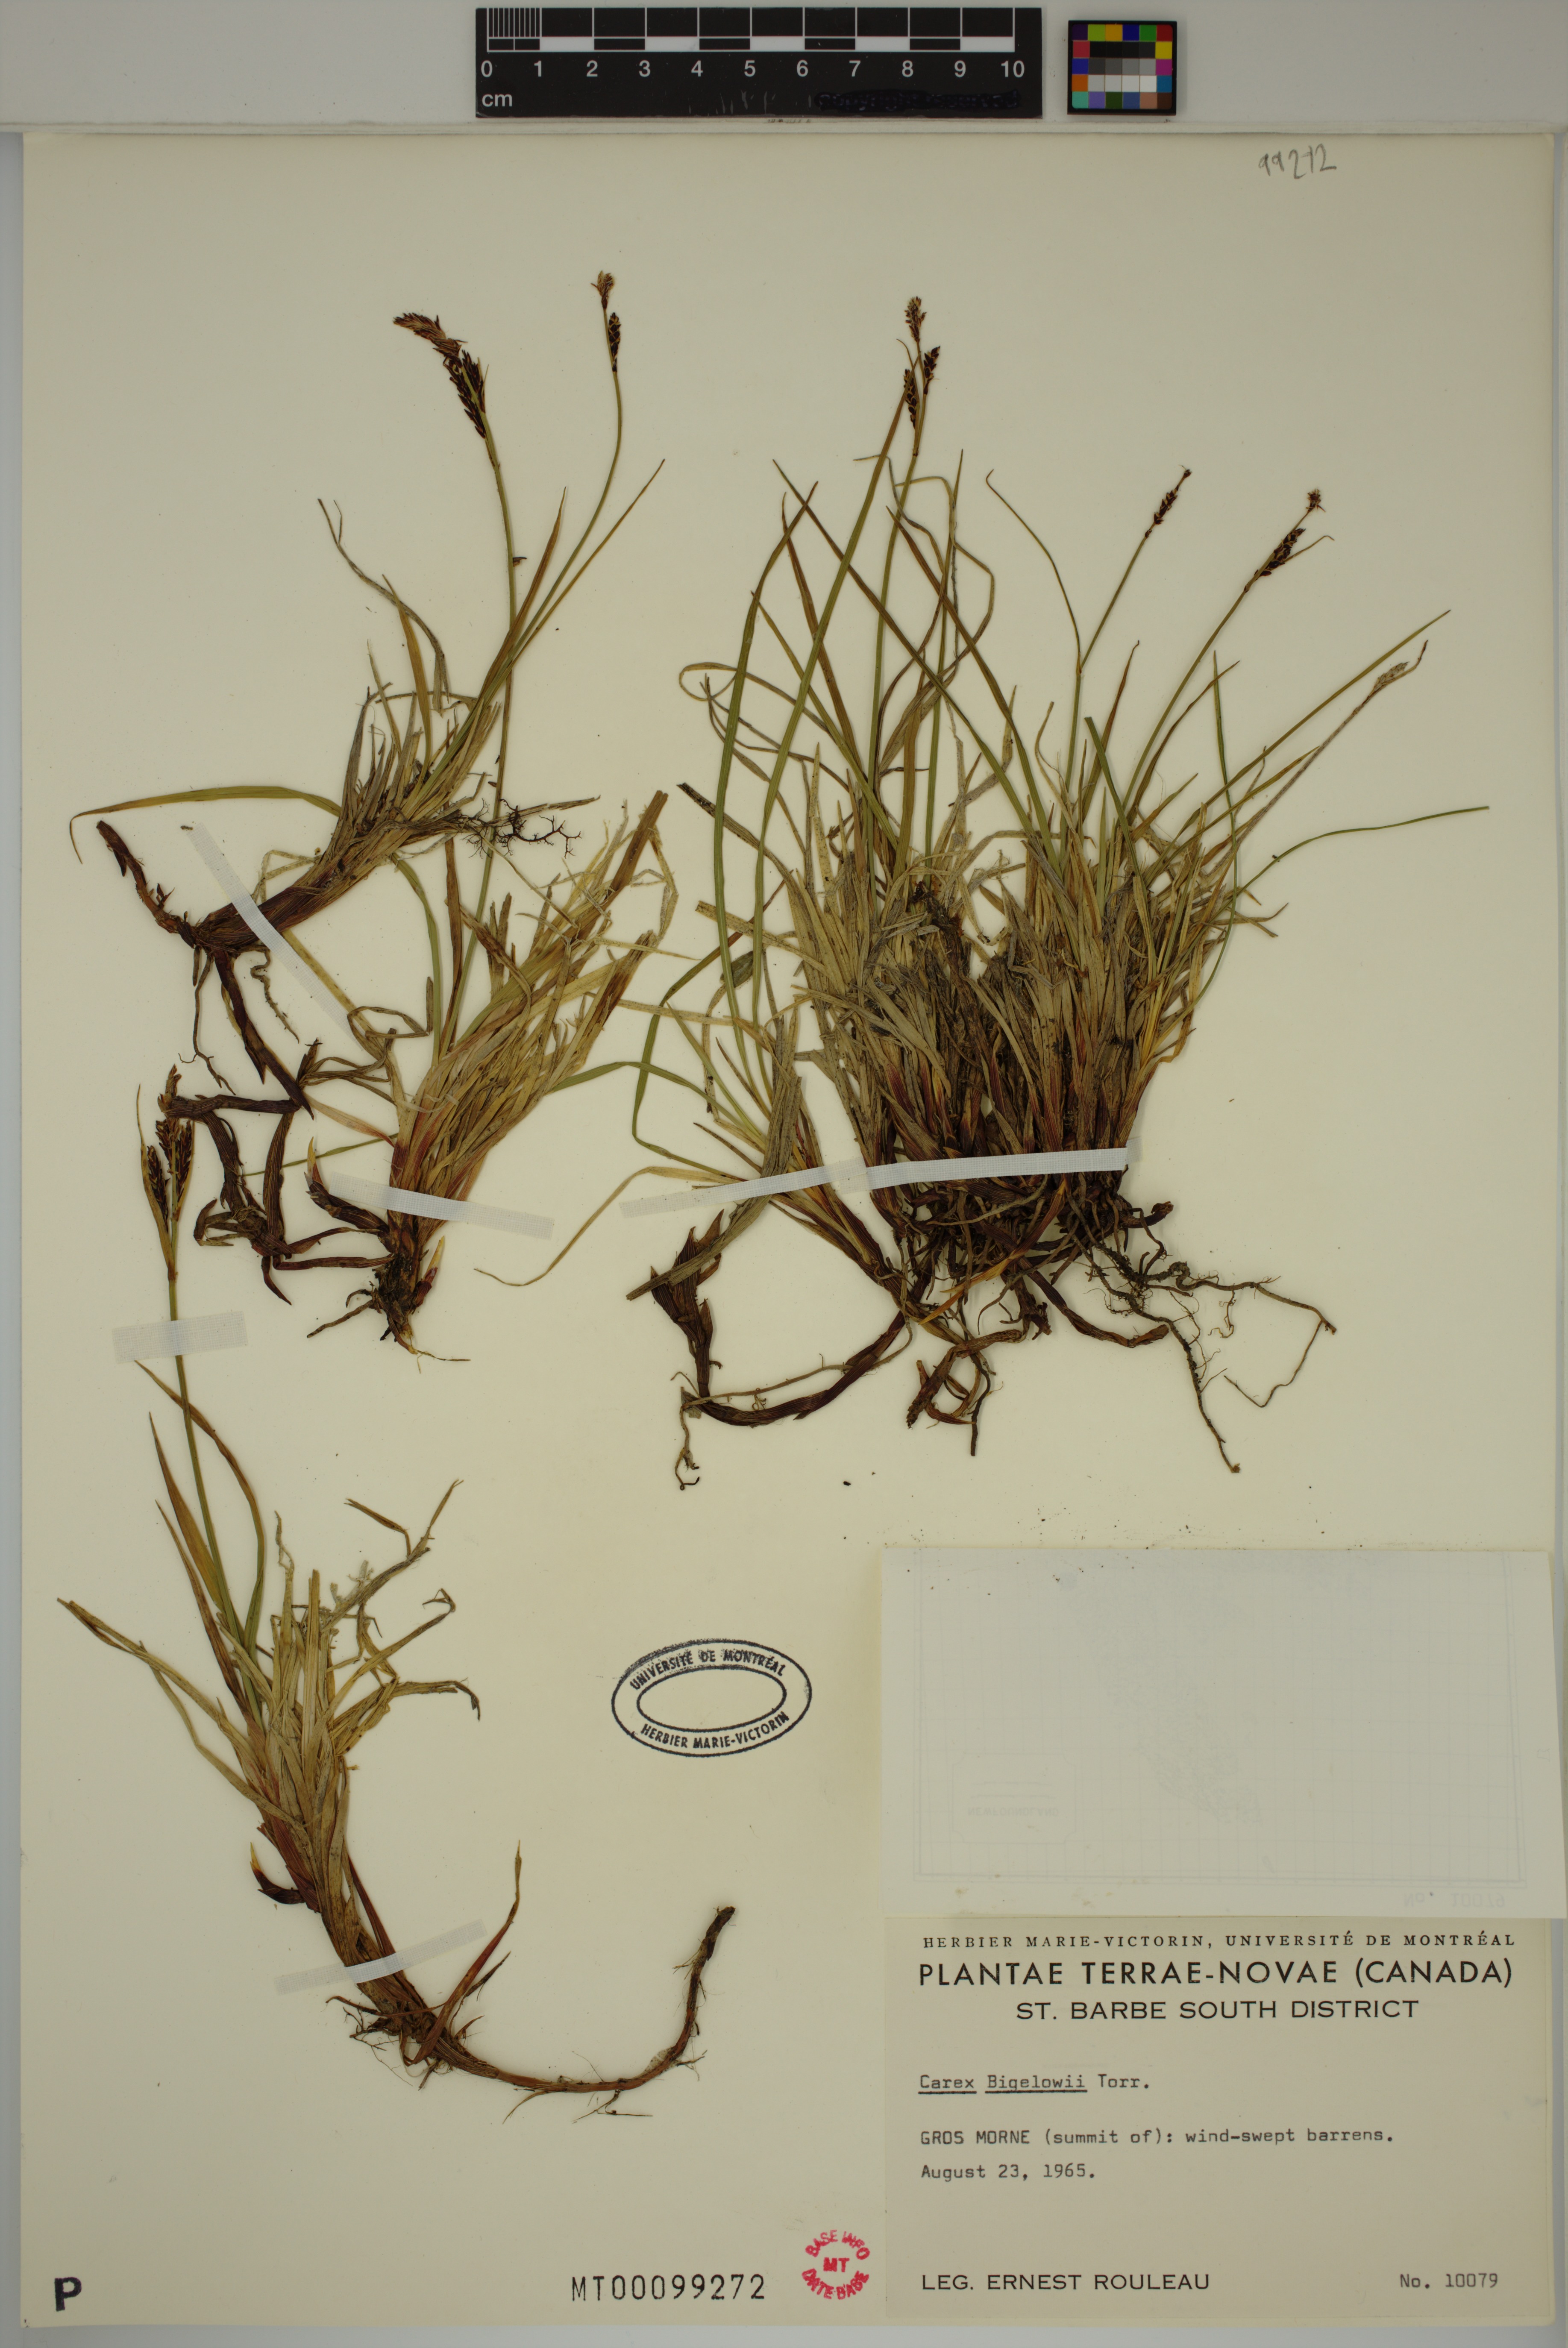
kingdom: Plantae
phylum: Tracheophyta
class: Liliopsida
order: Poales
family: Cyperaceae
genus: Carex
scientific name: Carex bigelowii
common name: Stiff sedge
